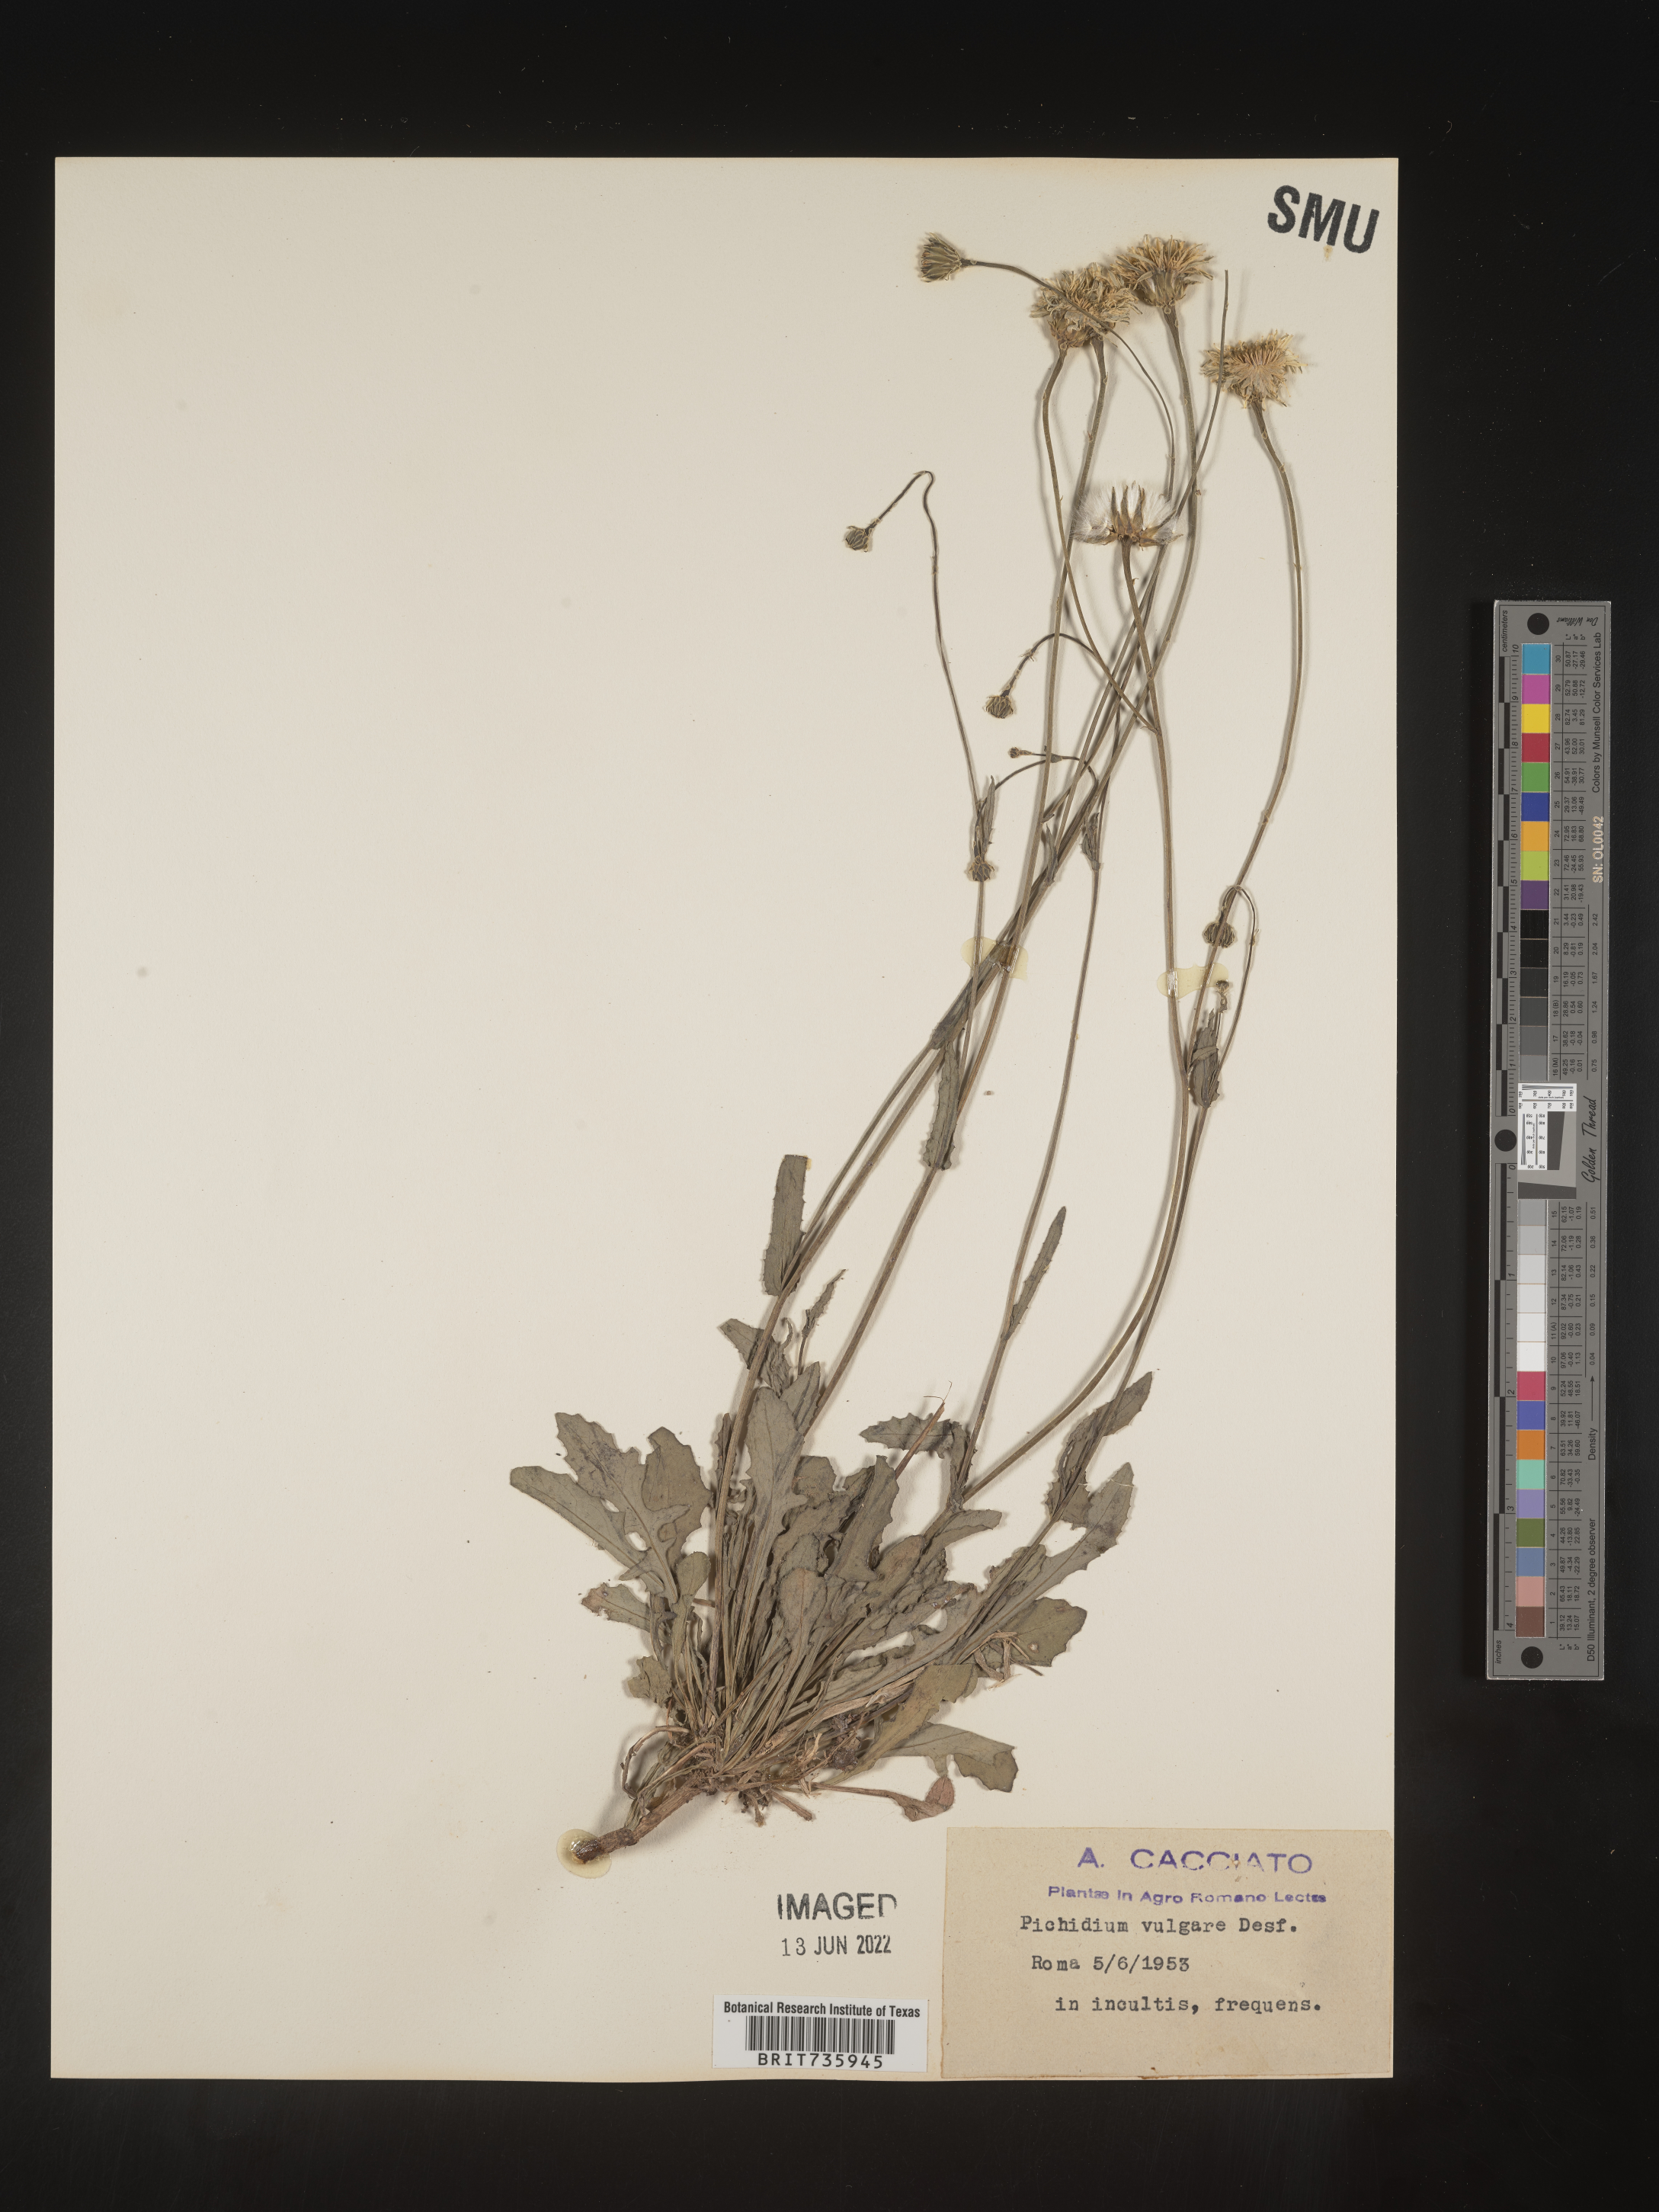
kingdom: Plantae
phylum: Tracheophyta
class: Magnoliopsida
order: Asterales
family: Asteraceae
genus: Reichardia
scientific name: Reichardia
